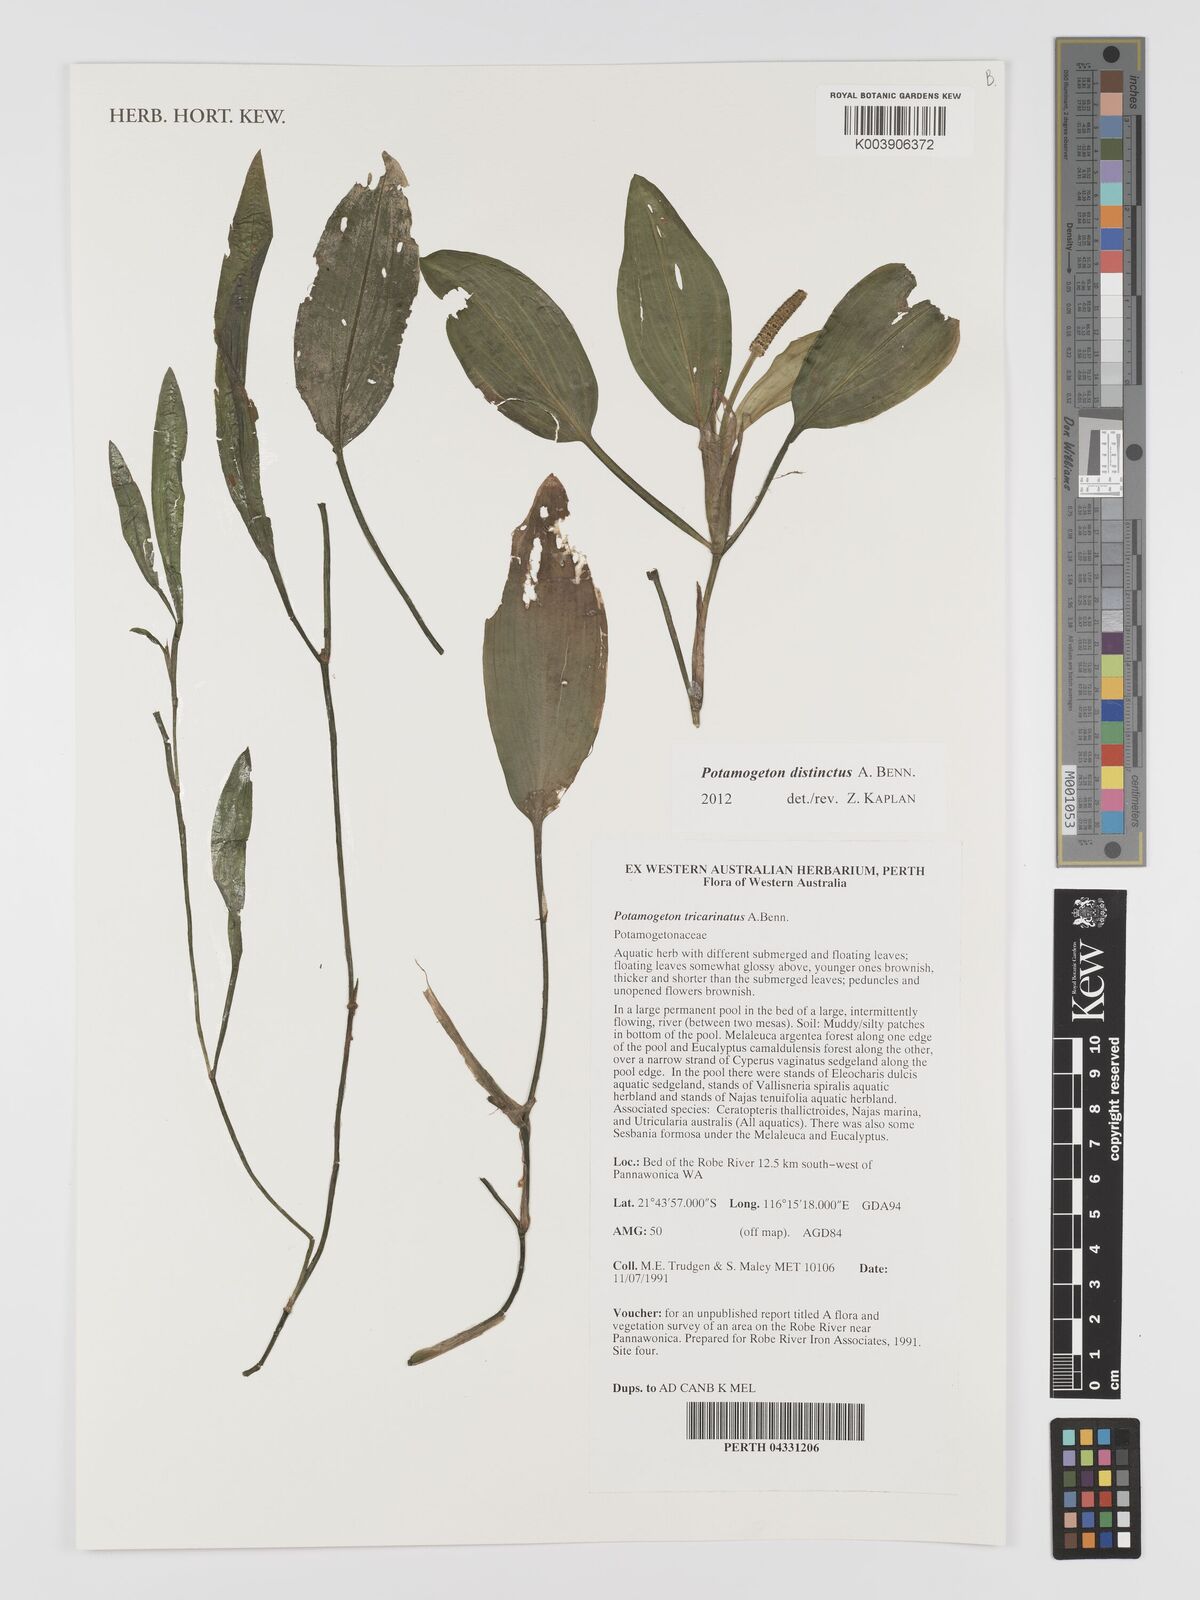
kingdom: Plantae
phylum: Tracheophyta
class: Liliopsida
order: Alismatales
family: Potamogetonaceae
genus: Potamogeton
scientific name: Potamogeton tricarinatus
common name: Pondweed
